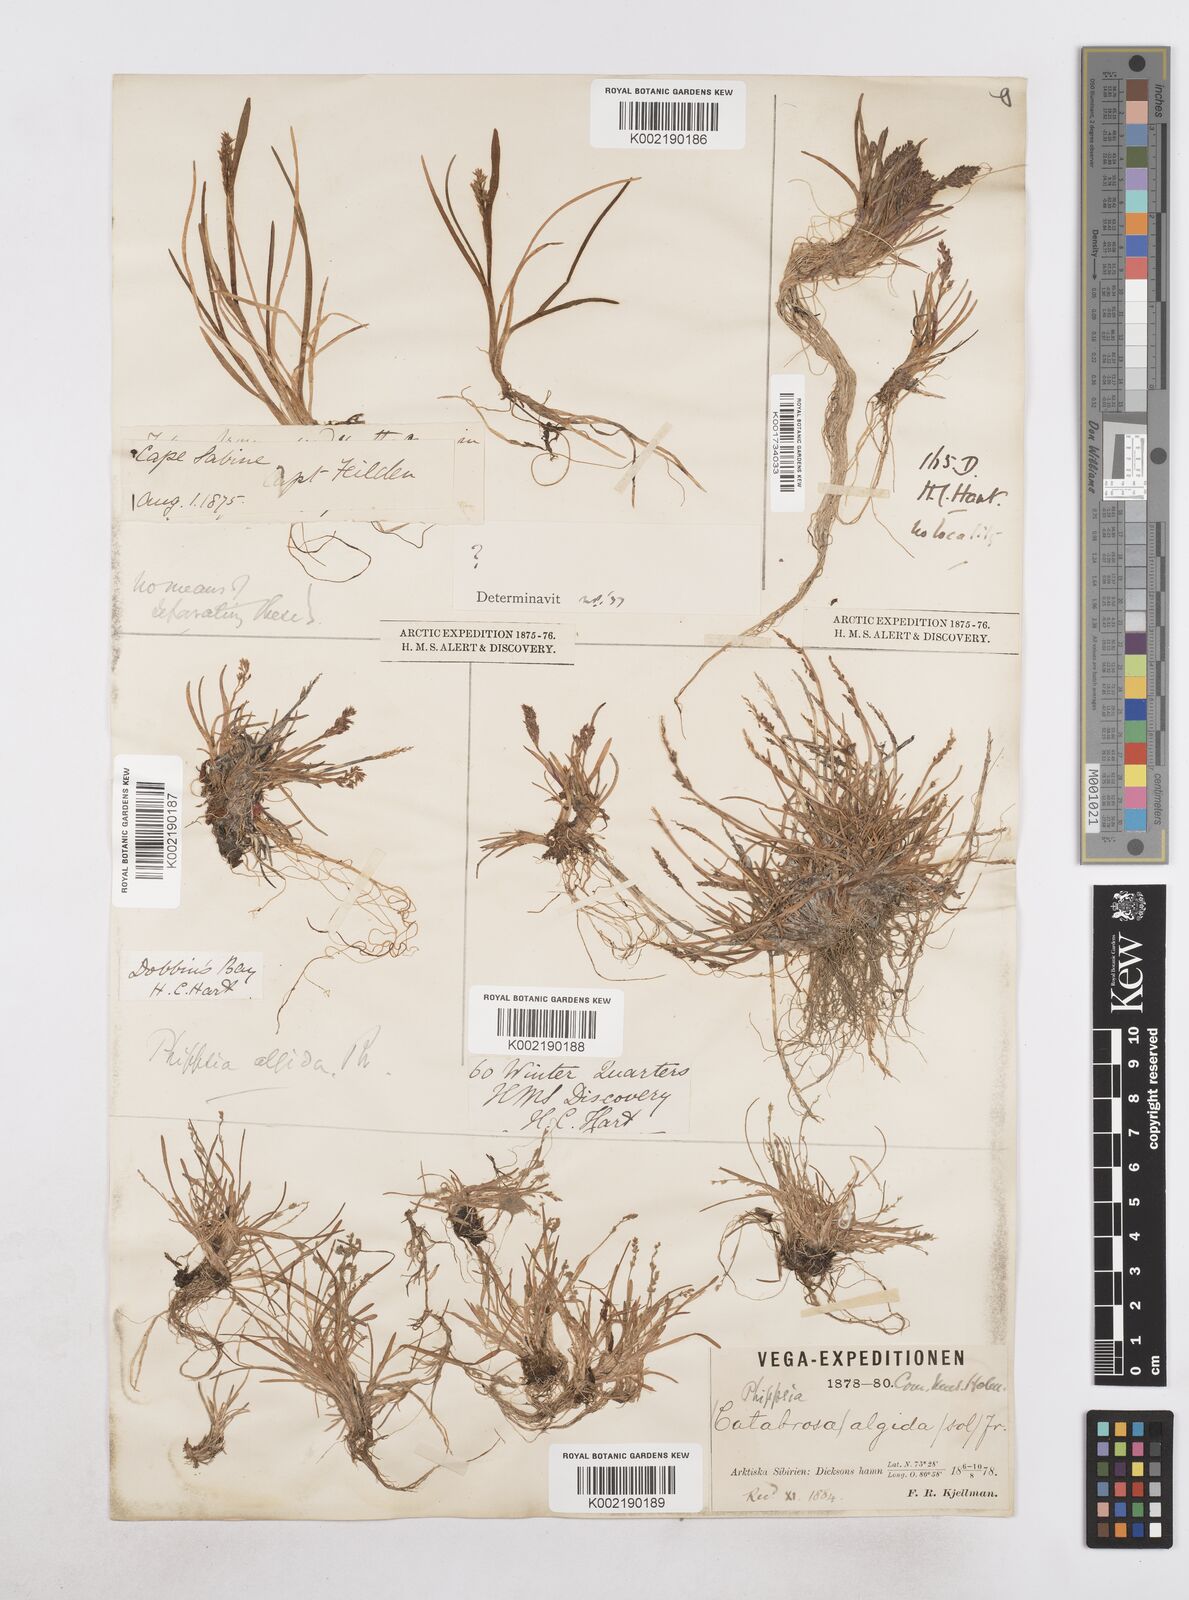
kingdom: Plantae
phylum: Tracheophyta
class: Liliopsida
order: Poales
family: Poaceae
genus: Phippsia
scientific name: Phippsia algida
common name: Ice grass
